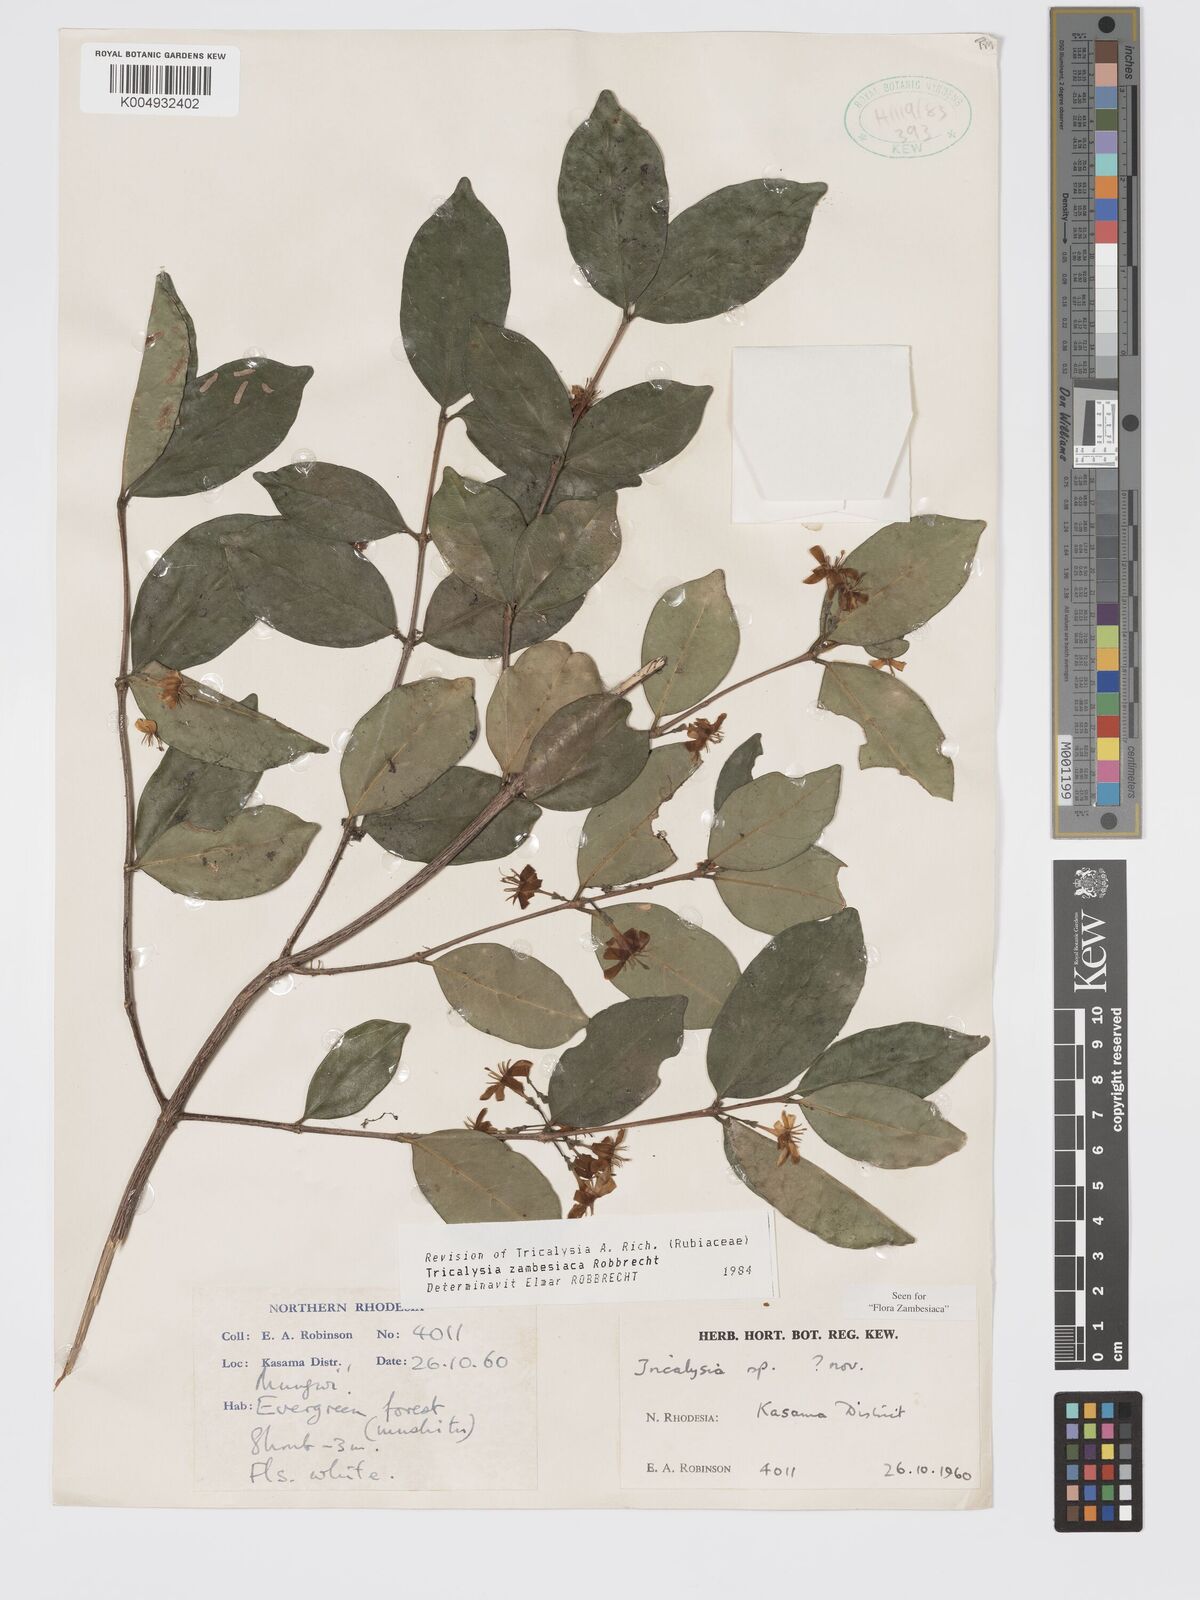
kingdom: Plantae
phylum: Tracheophyta
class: Magnoliopsida
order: Gentianales
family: Rubiaceae
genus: Tricalysia
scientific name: Tricalysia
